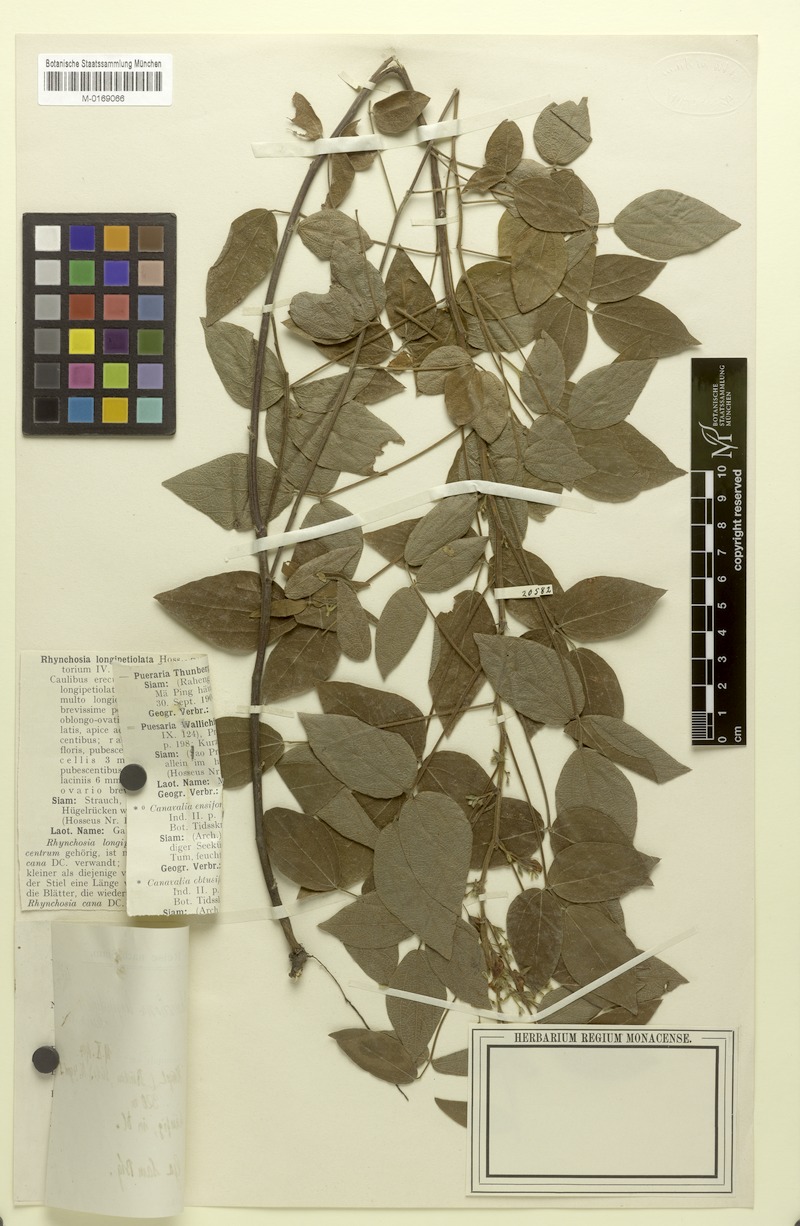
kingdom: Plantae
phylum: Tracheophyta
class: Magnoliopsida
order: Fabales
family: Fabaceae
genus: Rhynchosia
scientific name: Rhynchosia longipetiolata
